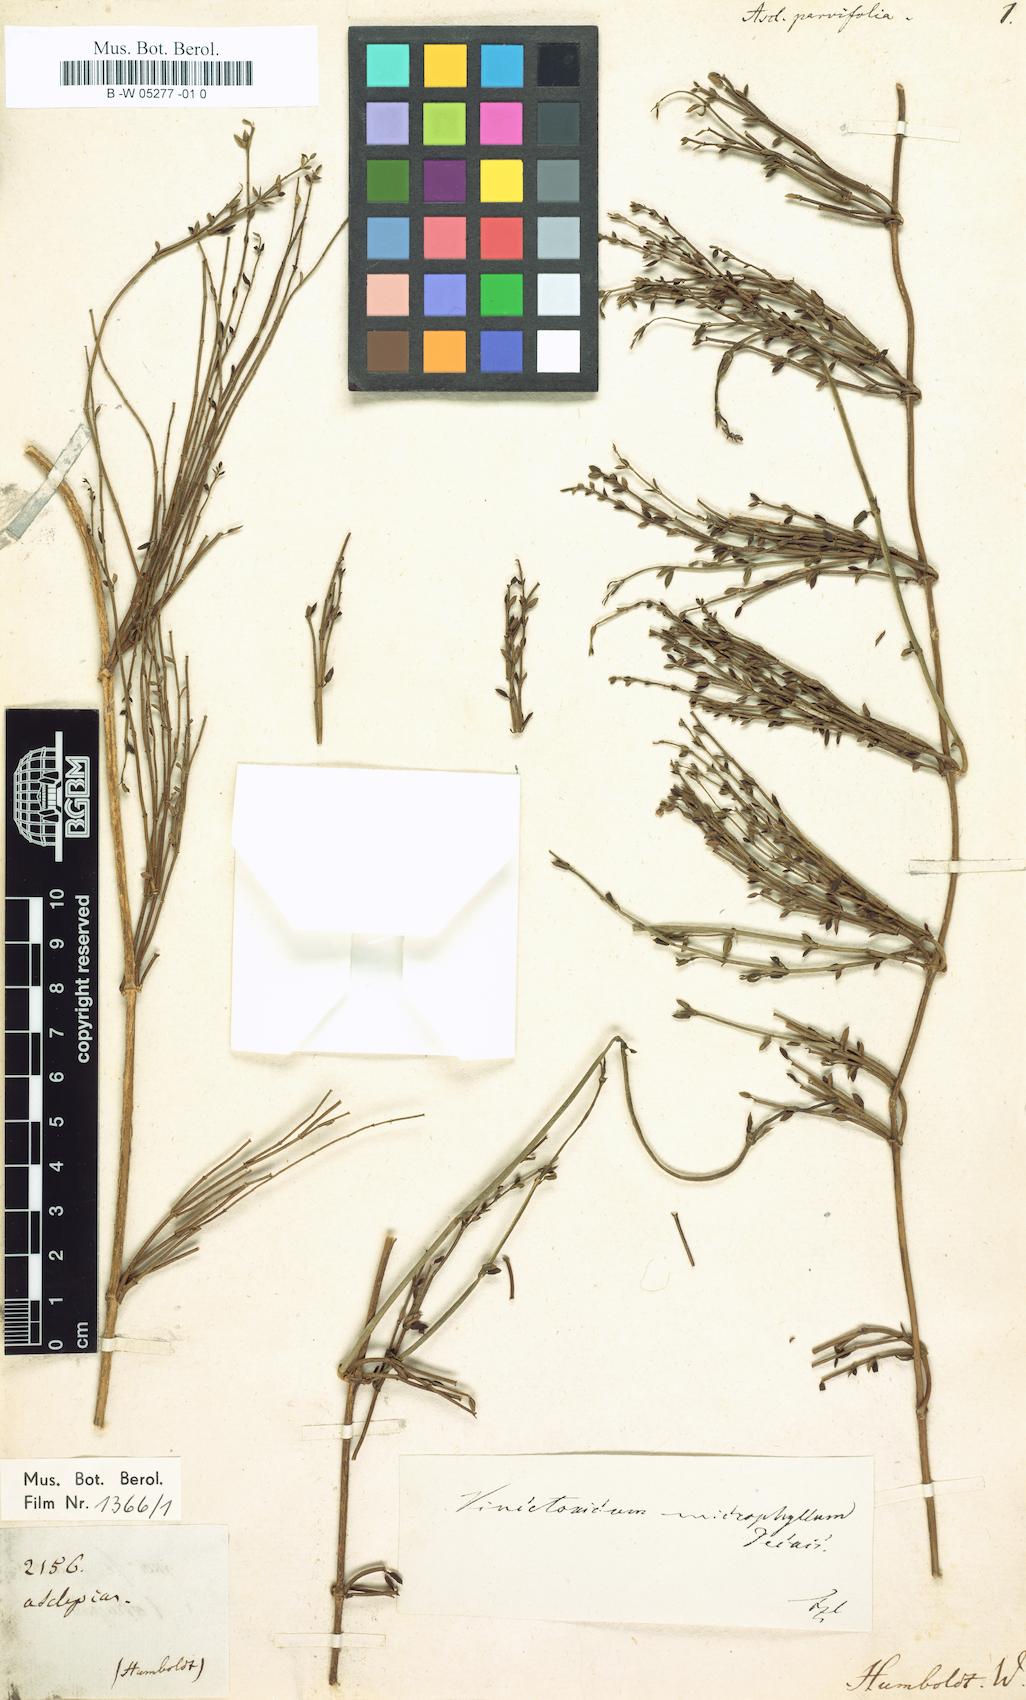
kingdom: Plantae
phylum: Tracheophyta
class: Magnoliopsida
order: Gentianales
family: Apocynaceae
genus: Asclepias
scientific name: Asclepias parvifolia
